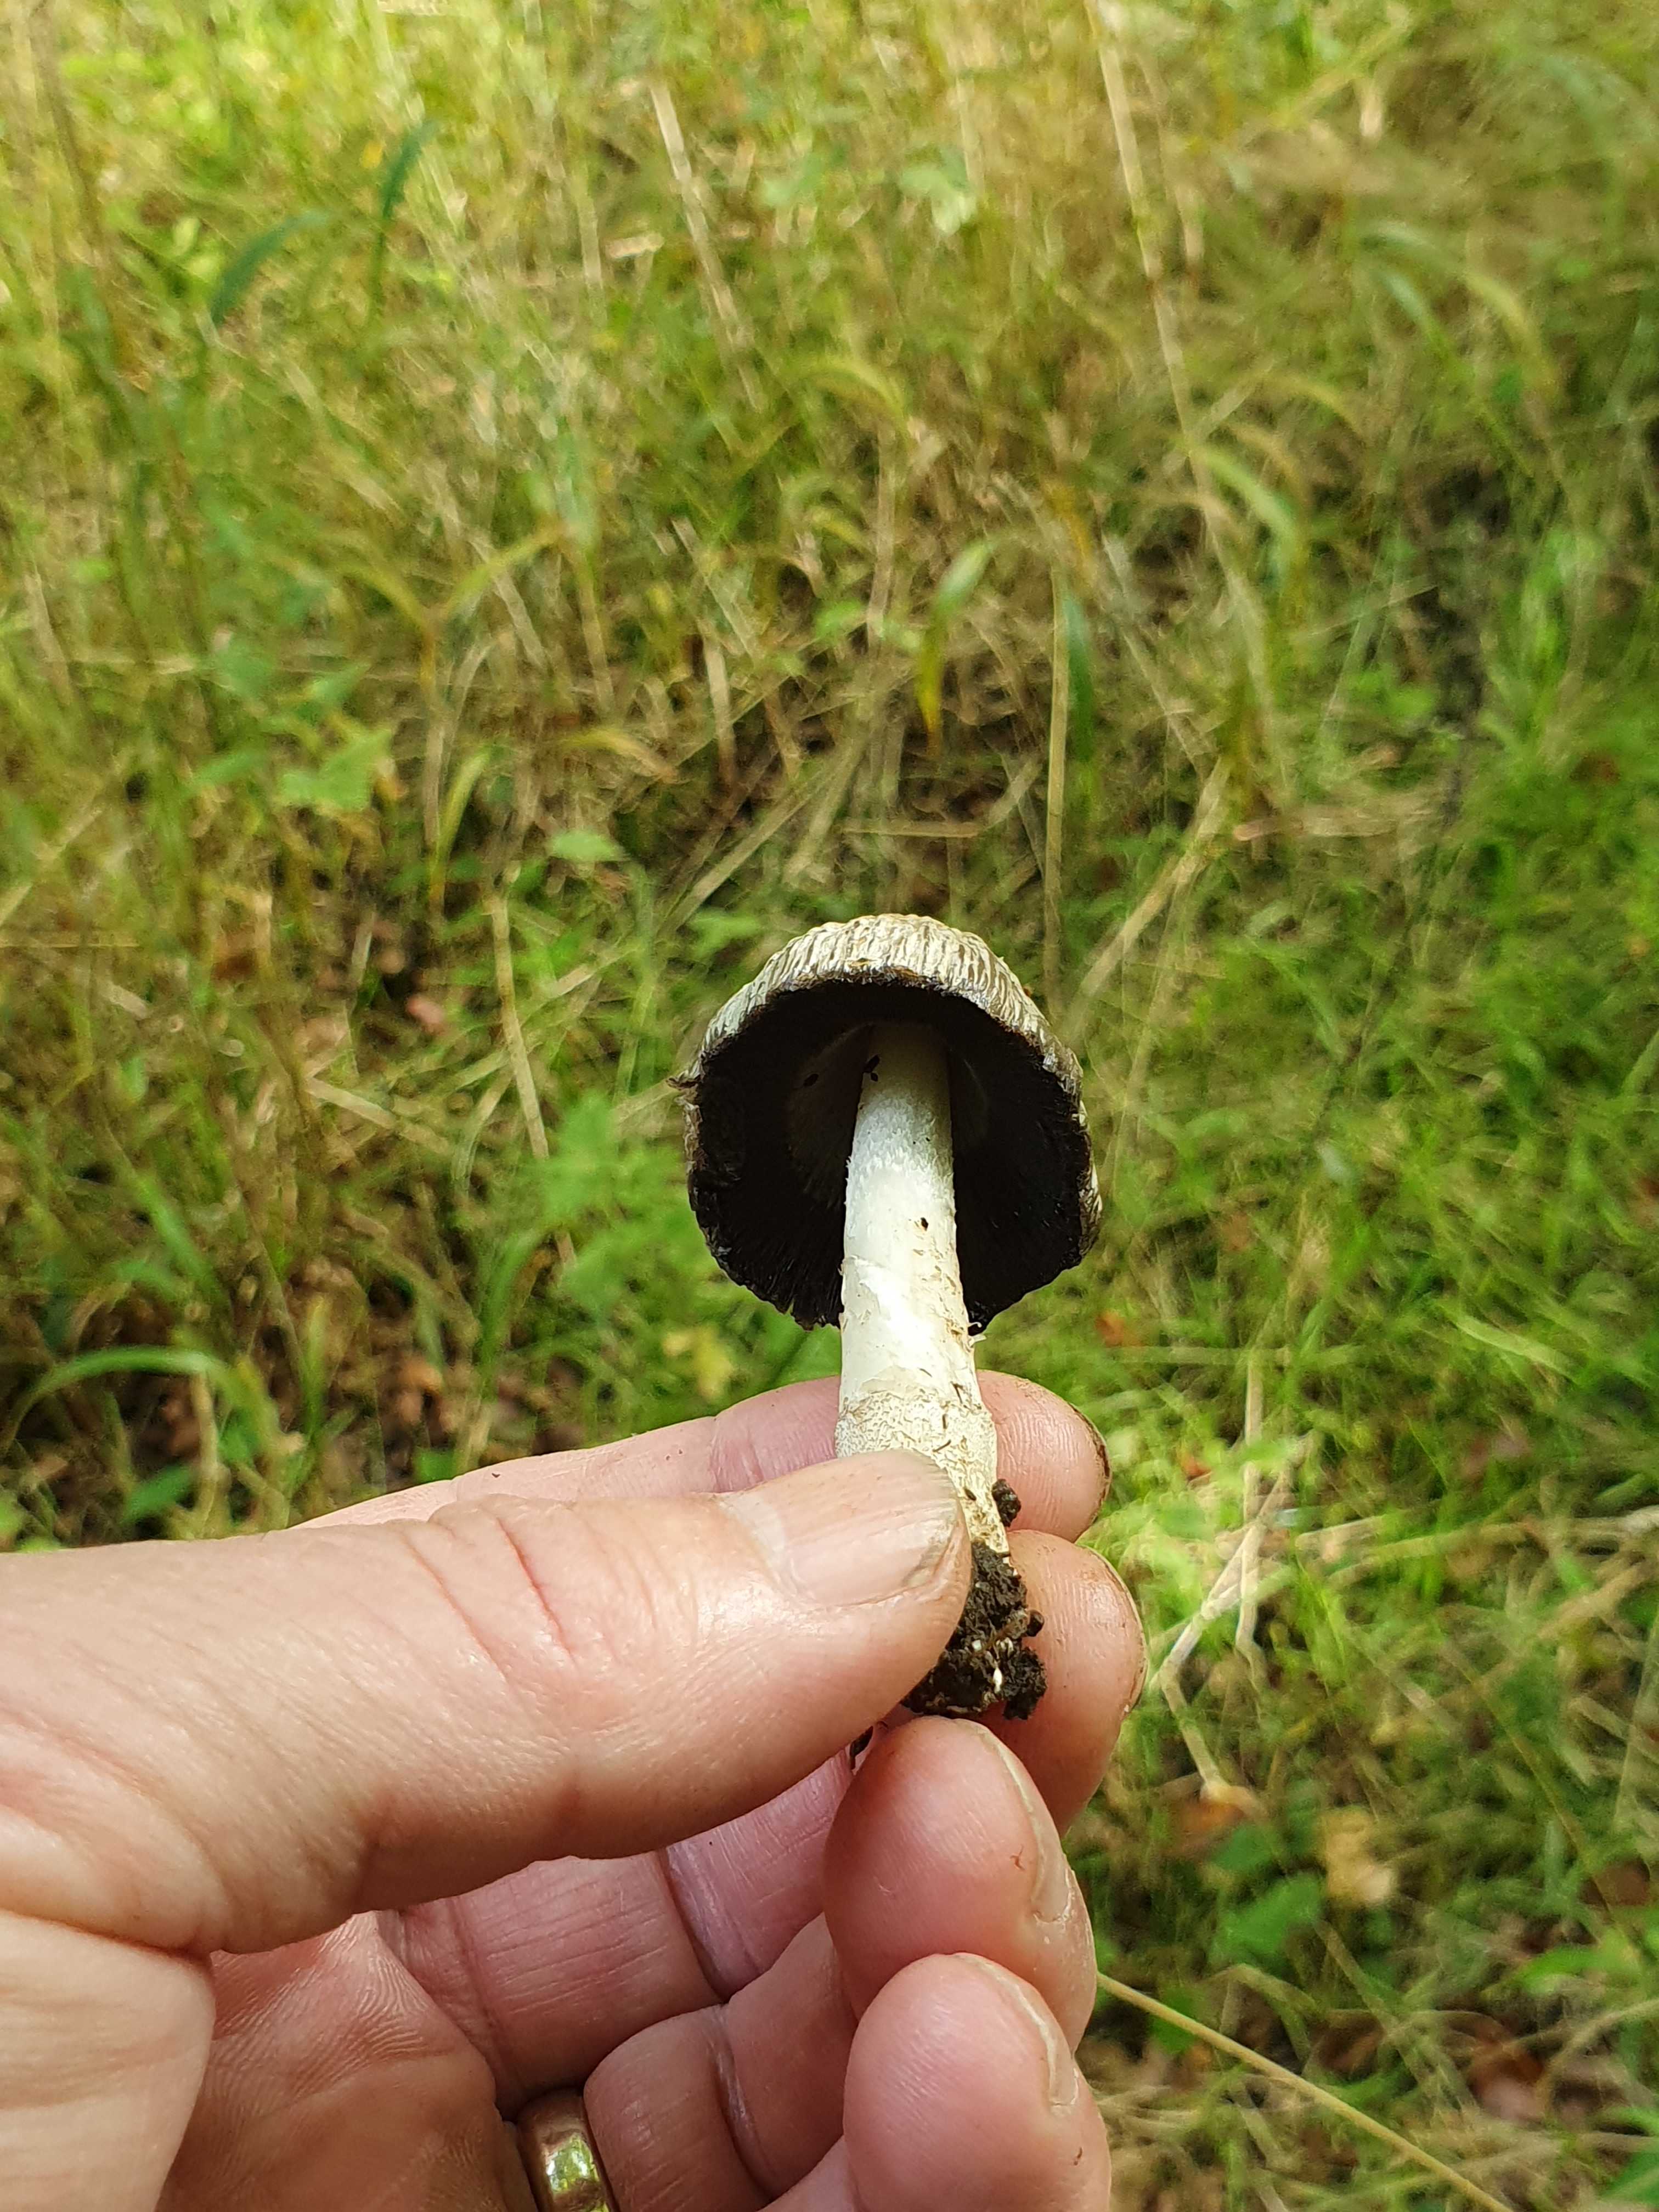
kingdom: Fungi
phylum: Basidiomycota
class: Agaricomycetes
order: Agaricales
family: Psathyrellaceae
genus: Coprinopsis
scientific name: Coprinopsis romagnesiana
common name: brunskællet blækhat
